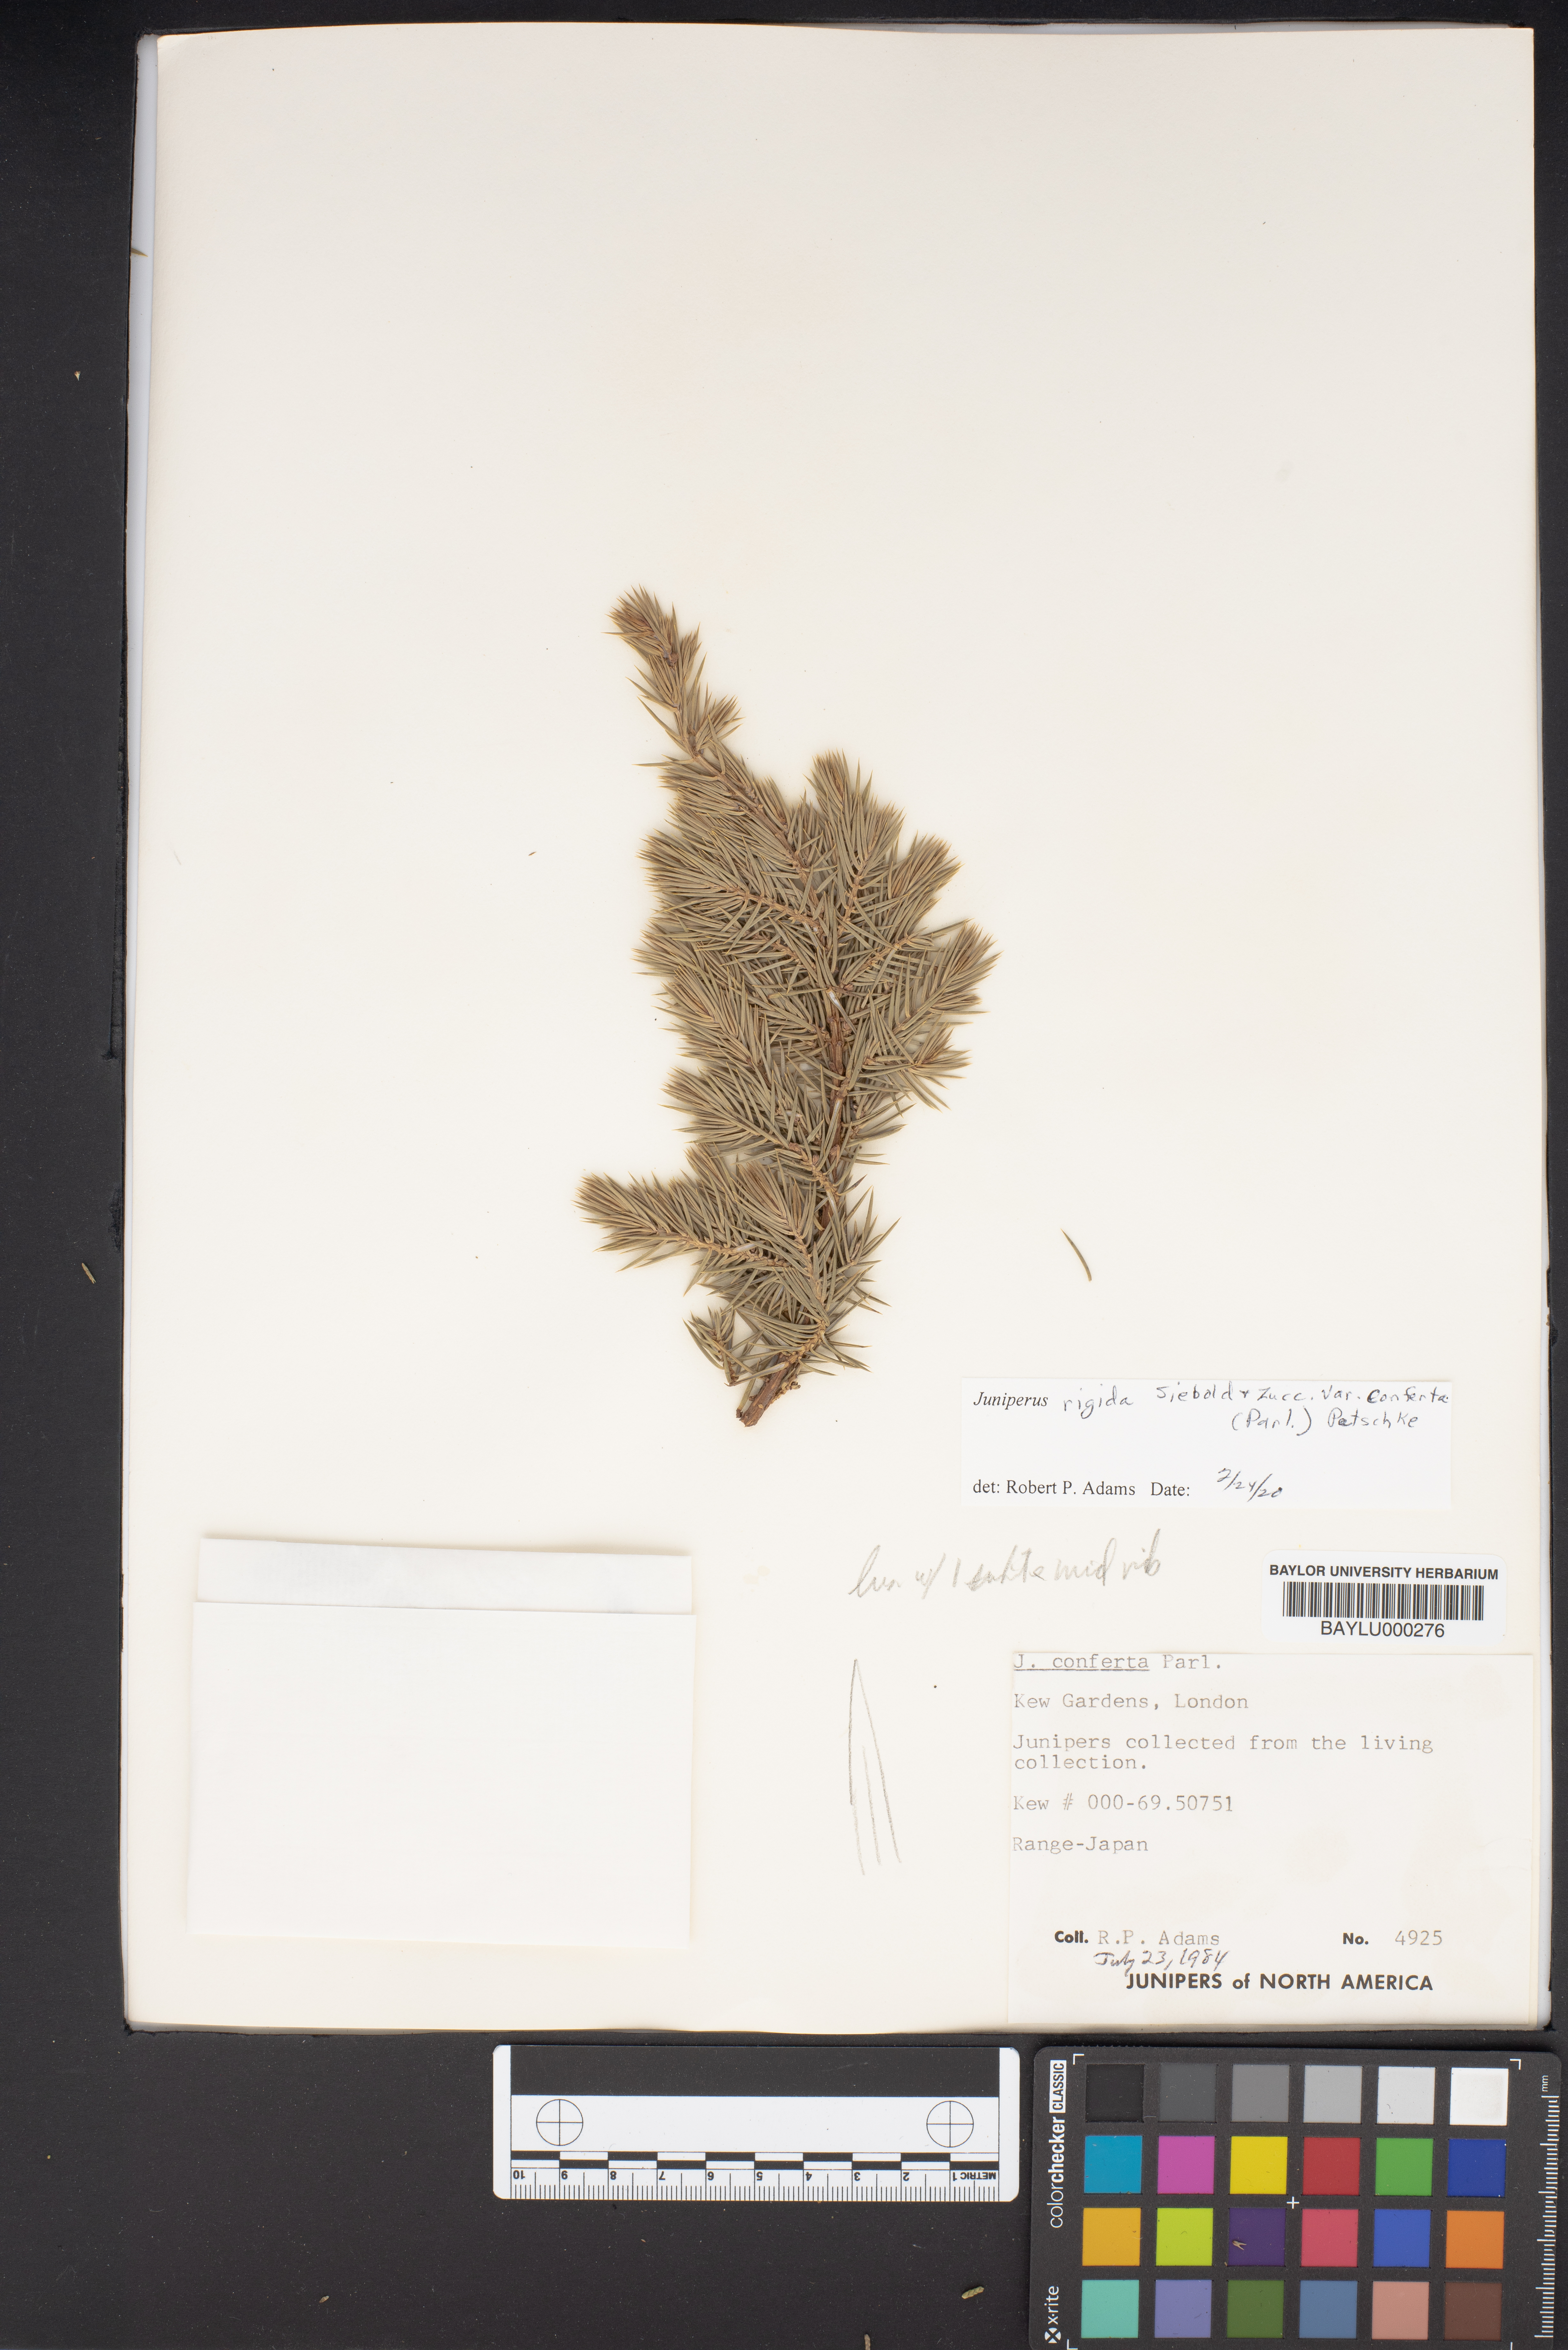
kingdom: Plantae
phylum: Tracheophyta
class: Pinopsida
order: Pinales
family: Cupressaceae
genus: Juniperus
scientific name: Juniperus rigida
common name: Needle juniper
